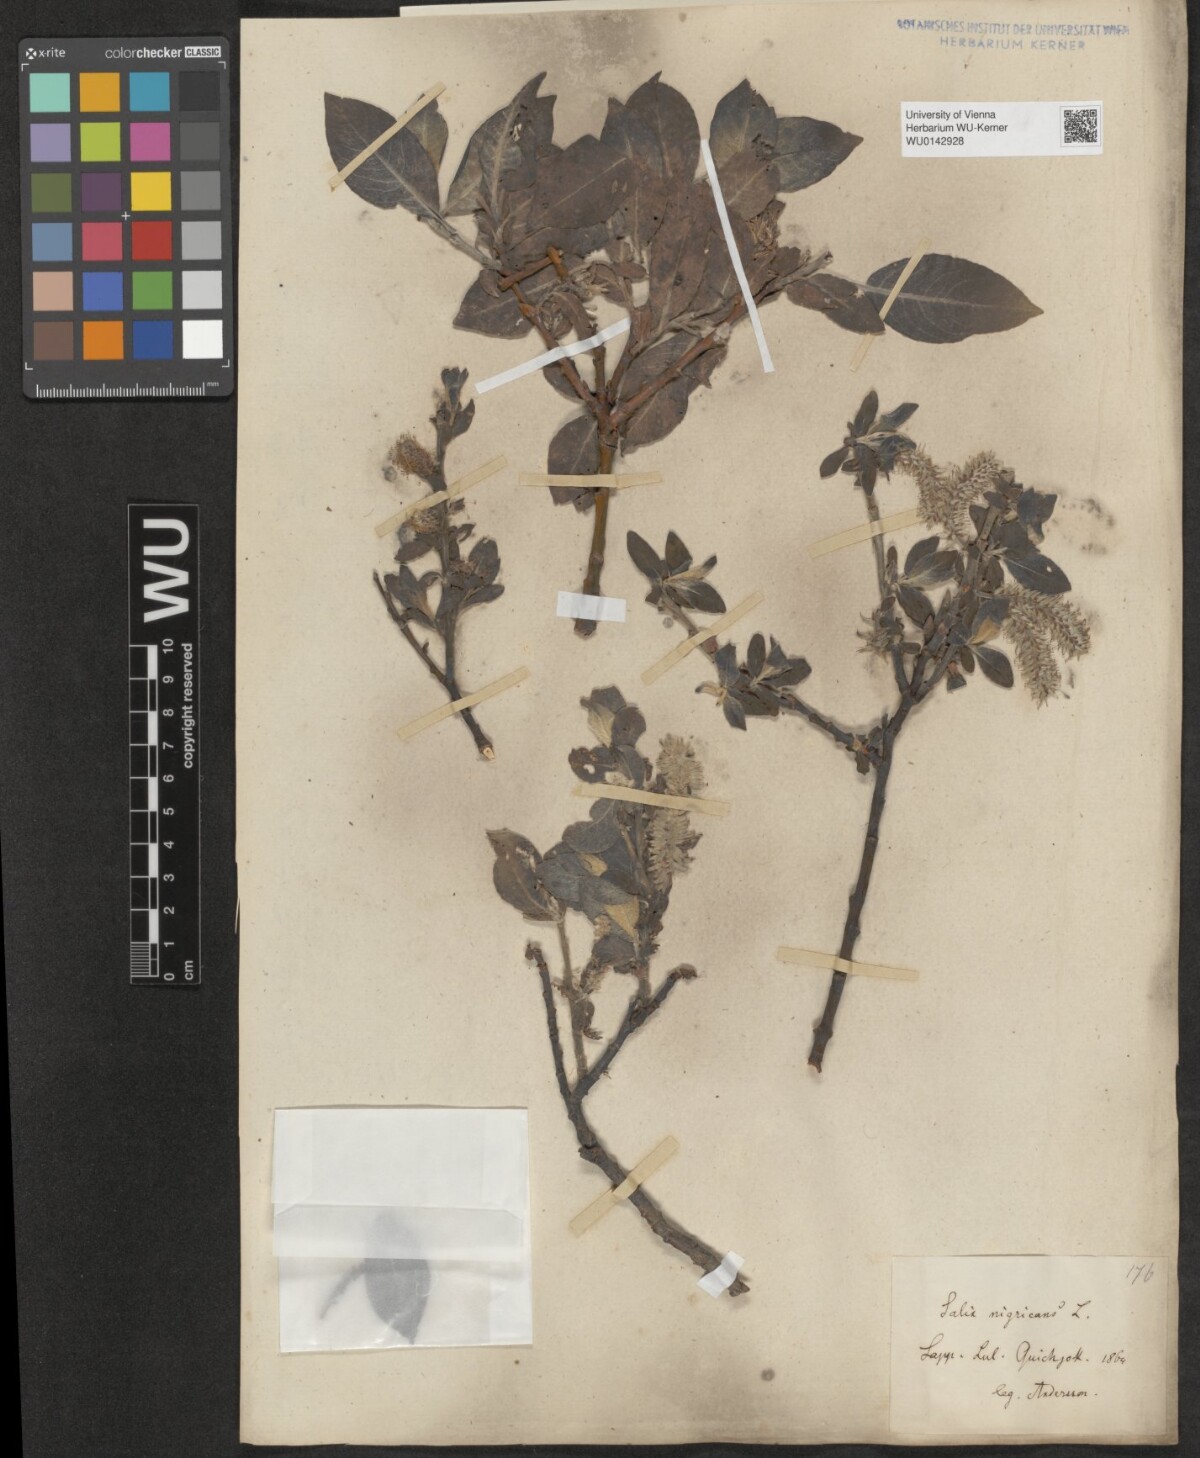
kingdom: Plantae
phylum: Tracheophyta
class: Magnoliopsida
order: Malpighiales
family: Salicaceae
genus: Salix
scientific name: Salix myrsinifolia
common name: Dark-leaved willow
